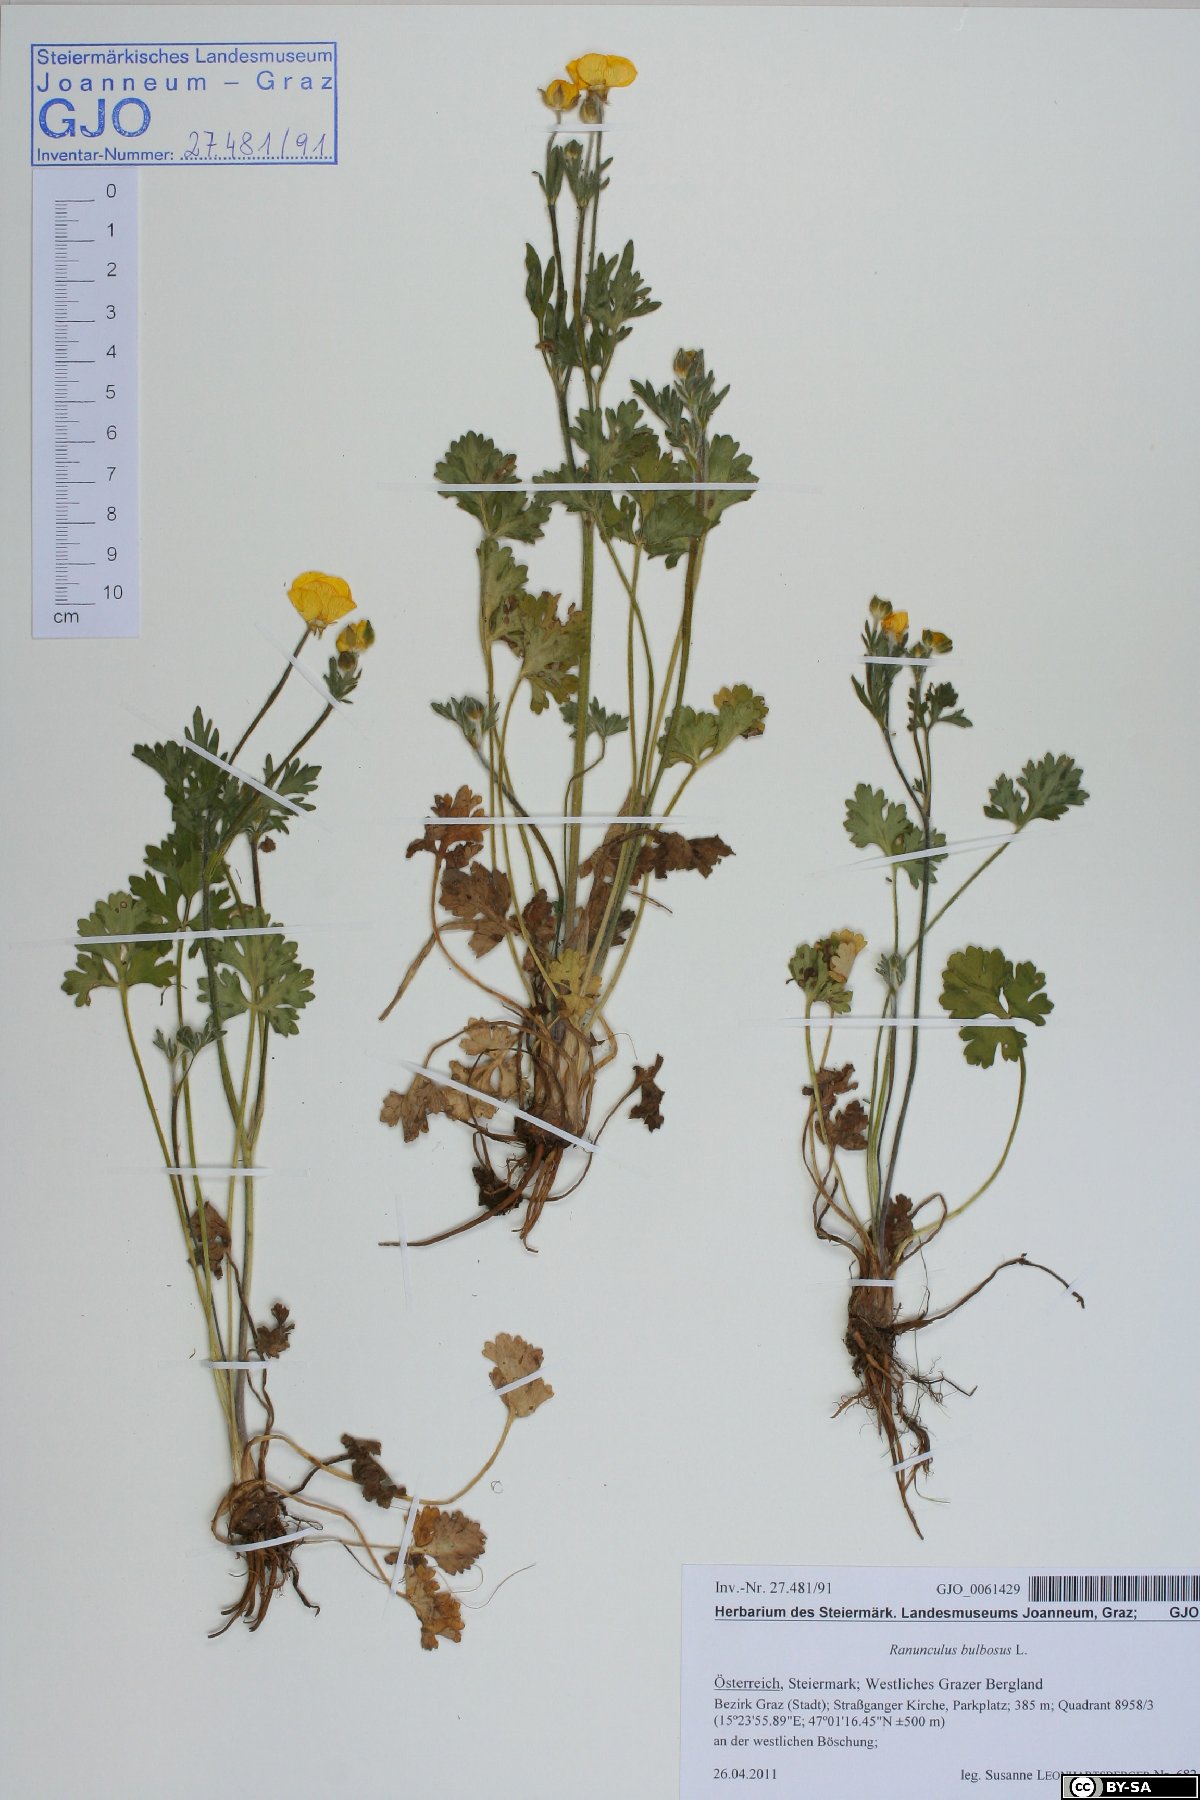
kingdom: Plantae
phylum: Tracheophyta
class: Magnoliopsida
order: Ranunculales
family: Ranunculaceae
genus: Ranunculus
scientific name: Ranunculus bulbosus
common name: Bulbous buttercup
